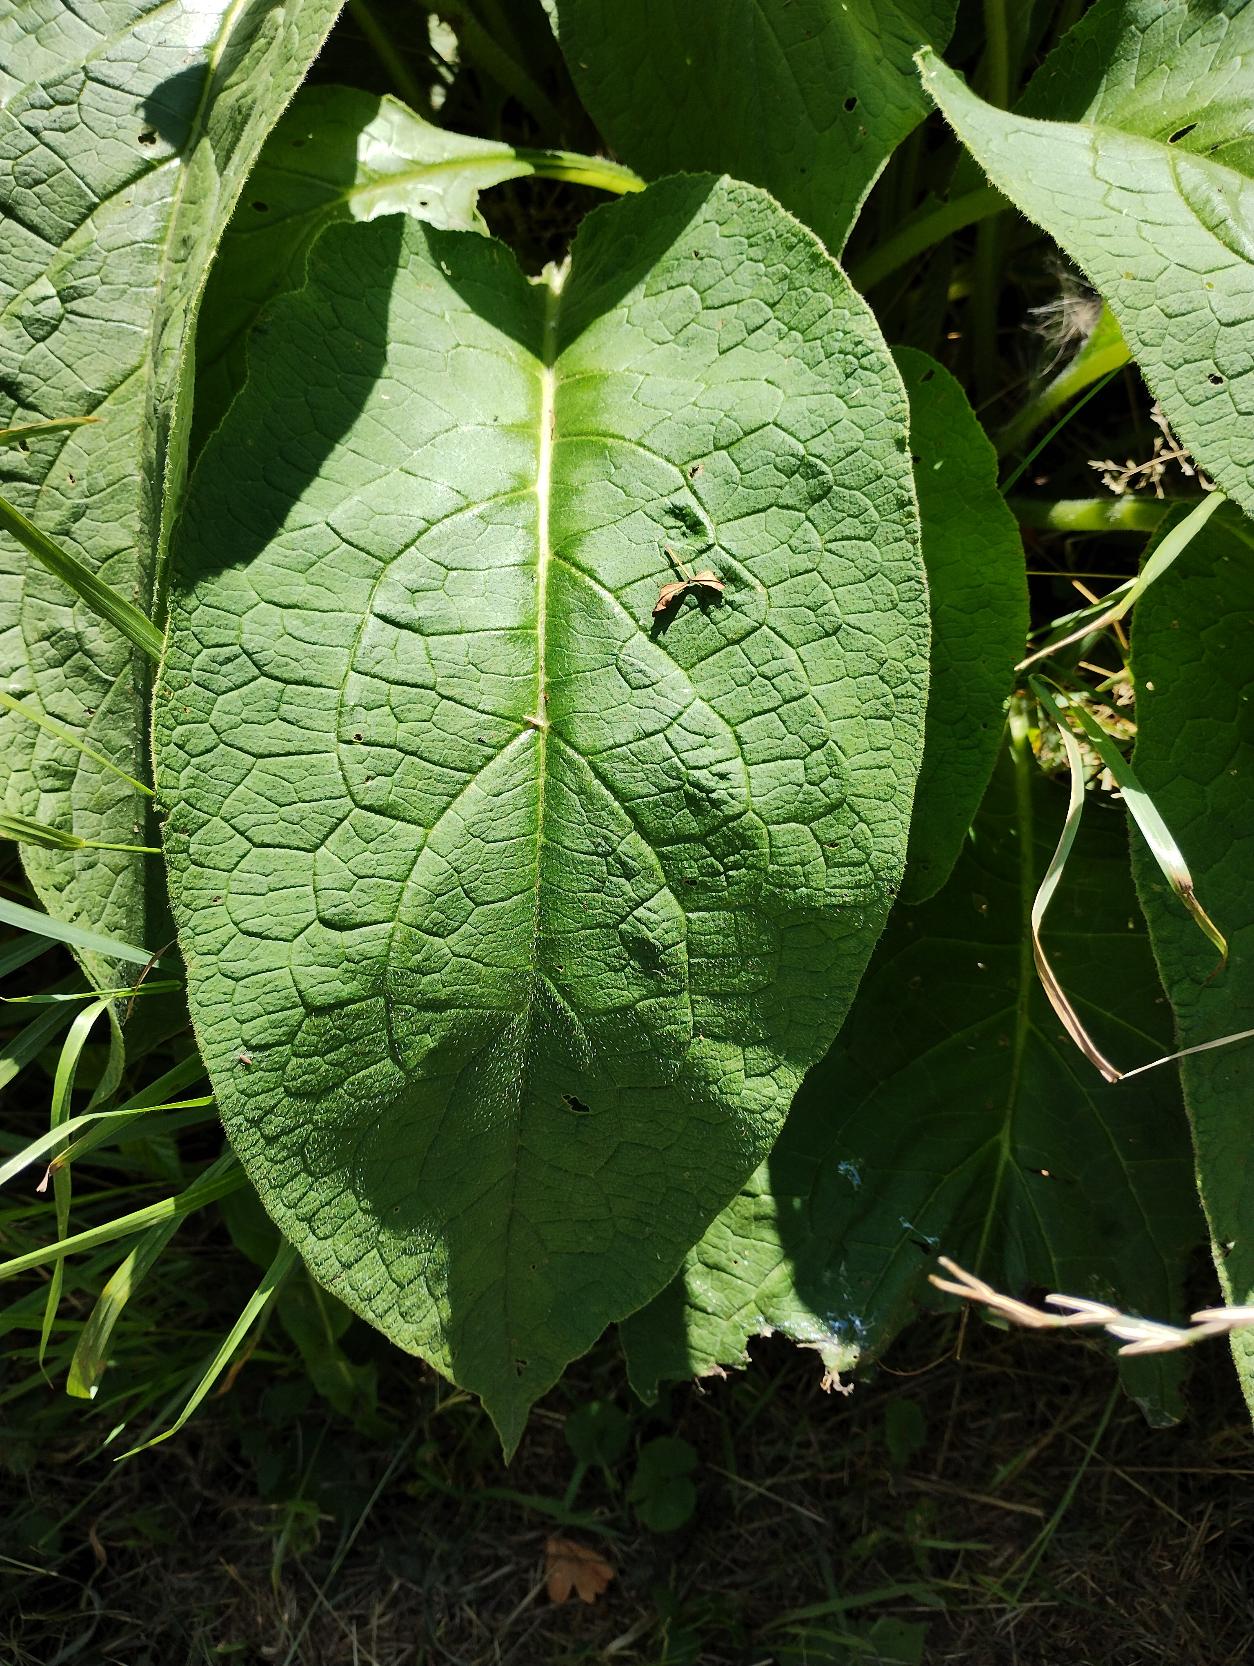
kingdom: Plantae
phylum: Tracheophyta
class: Magnoliopsida
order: Boraginales
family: Boraginaceae
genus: Symphytum
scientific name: Symphytum
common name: Kulsukkerslægten
